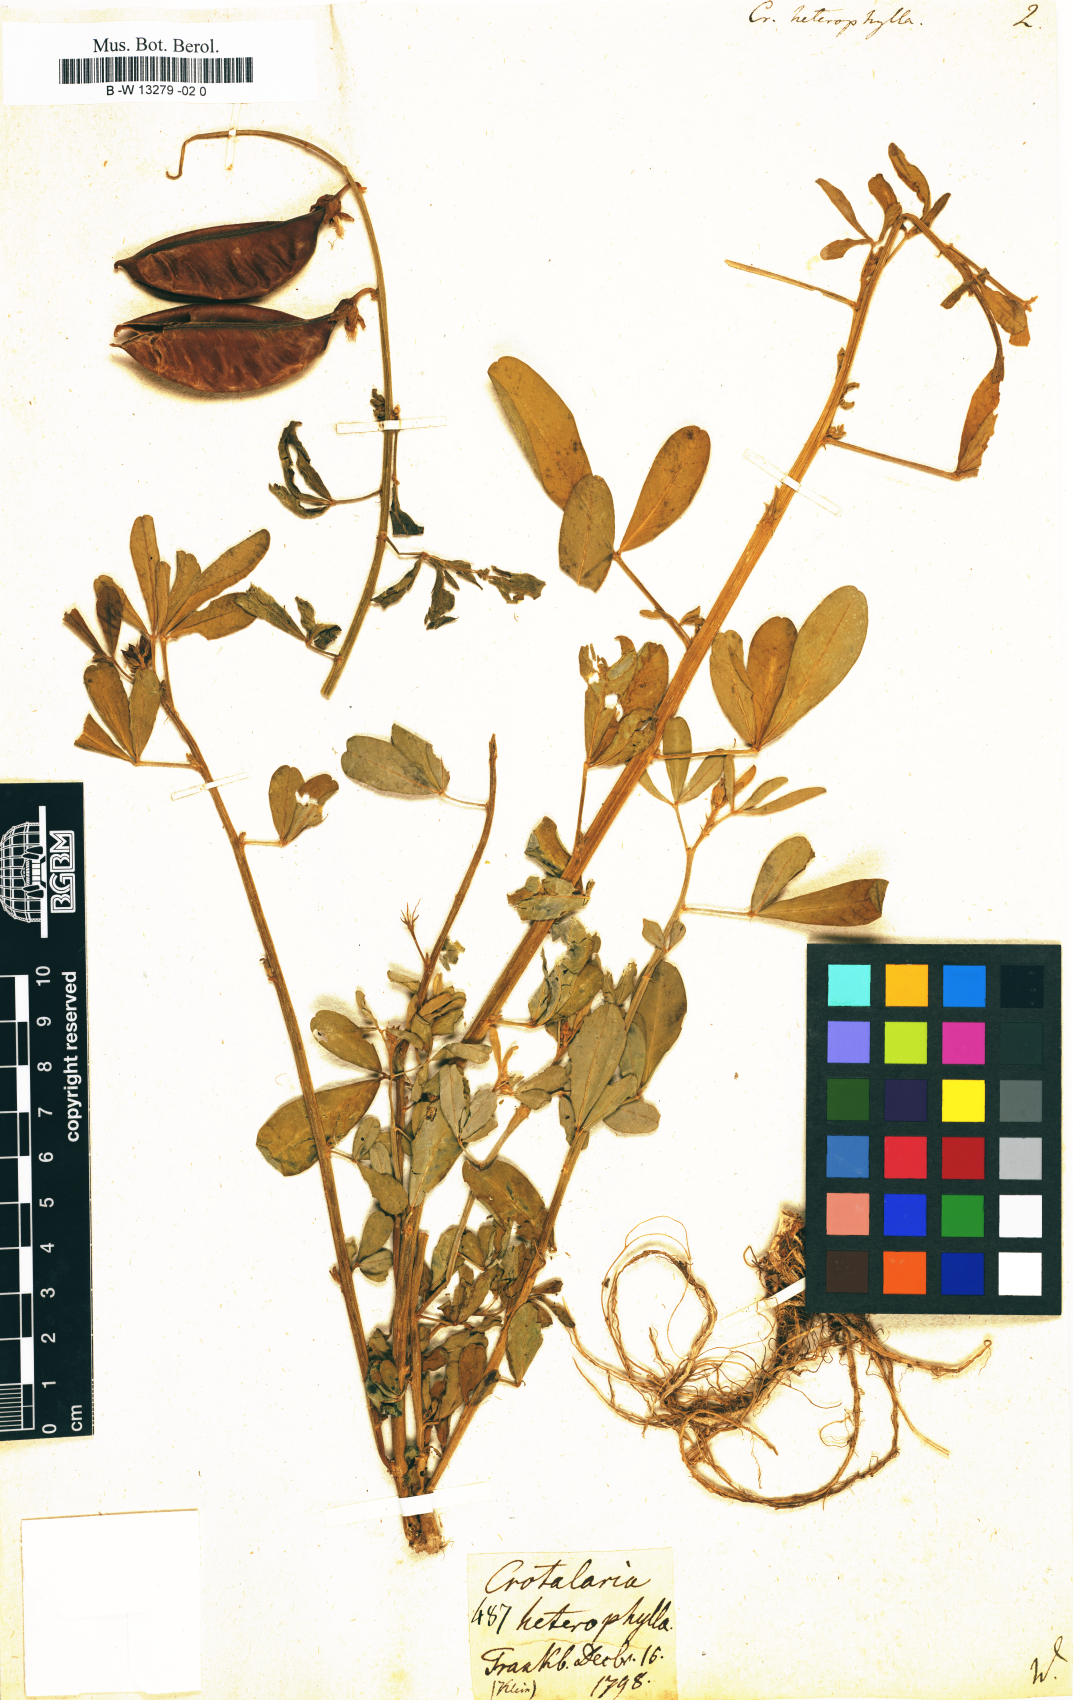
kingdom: Plantae
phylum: Tracheophyta
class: Magnoliopsida
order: Fabales
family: Fabaceae
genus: Crotalaria
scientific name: Crotalaria quinquefolia
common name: Five-leaf crotalaria
